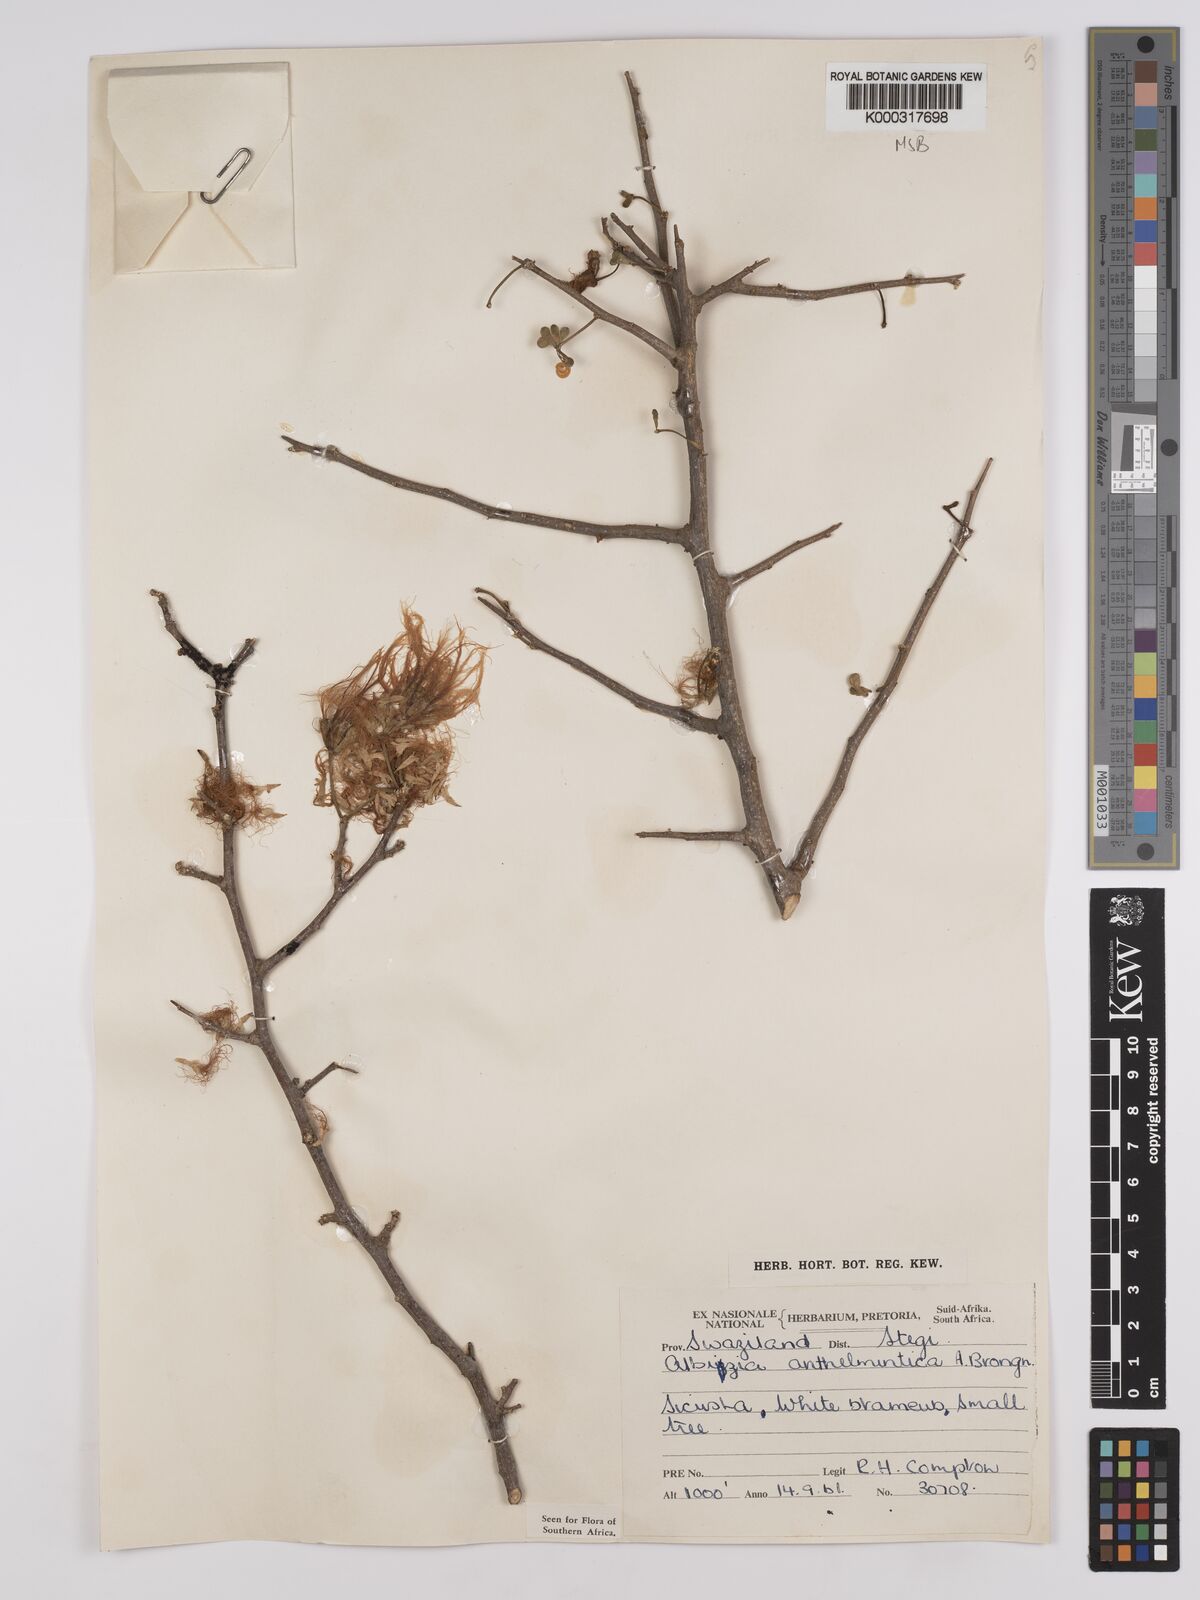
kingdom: Plantae
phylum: Tracheophyta
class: Magnoliopsida
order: Fabales
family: Fabaceae
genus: Albizia
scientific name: Albizia anthelmintica
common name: Worm-bark false-thorn
